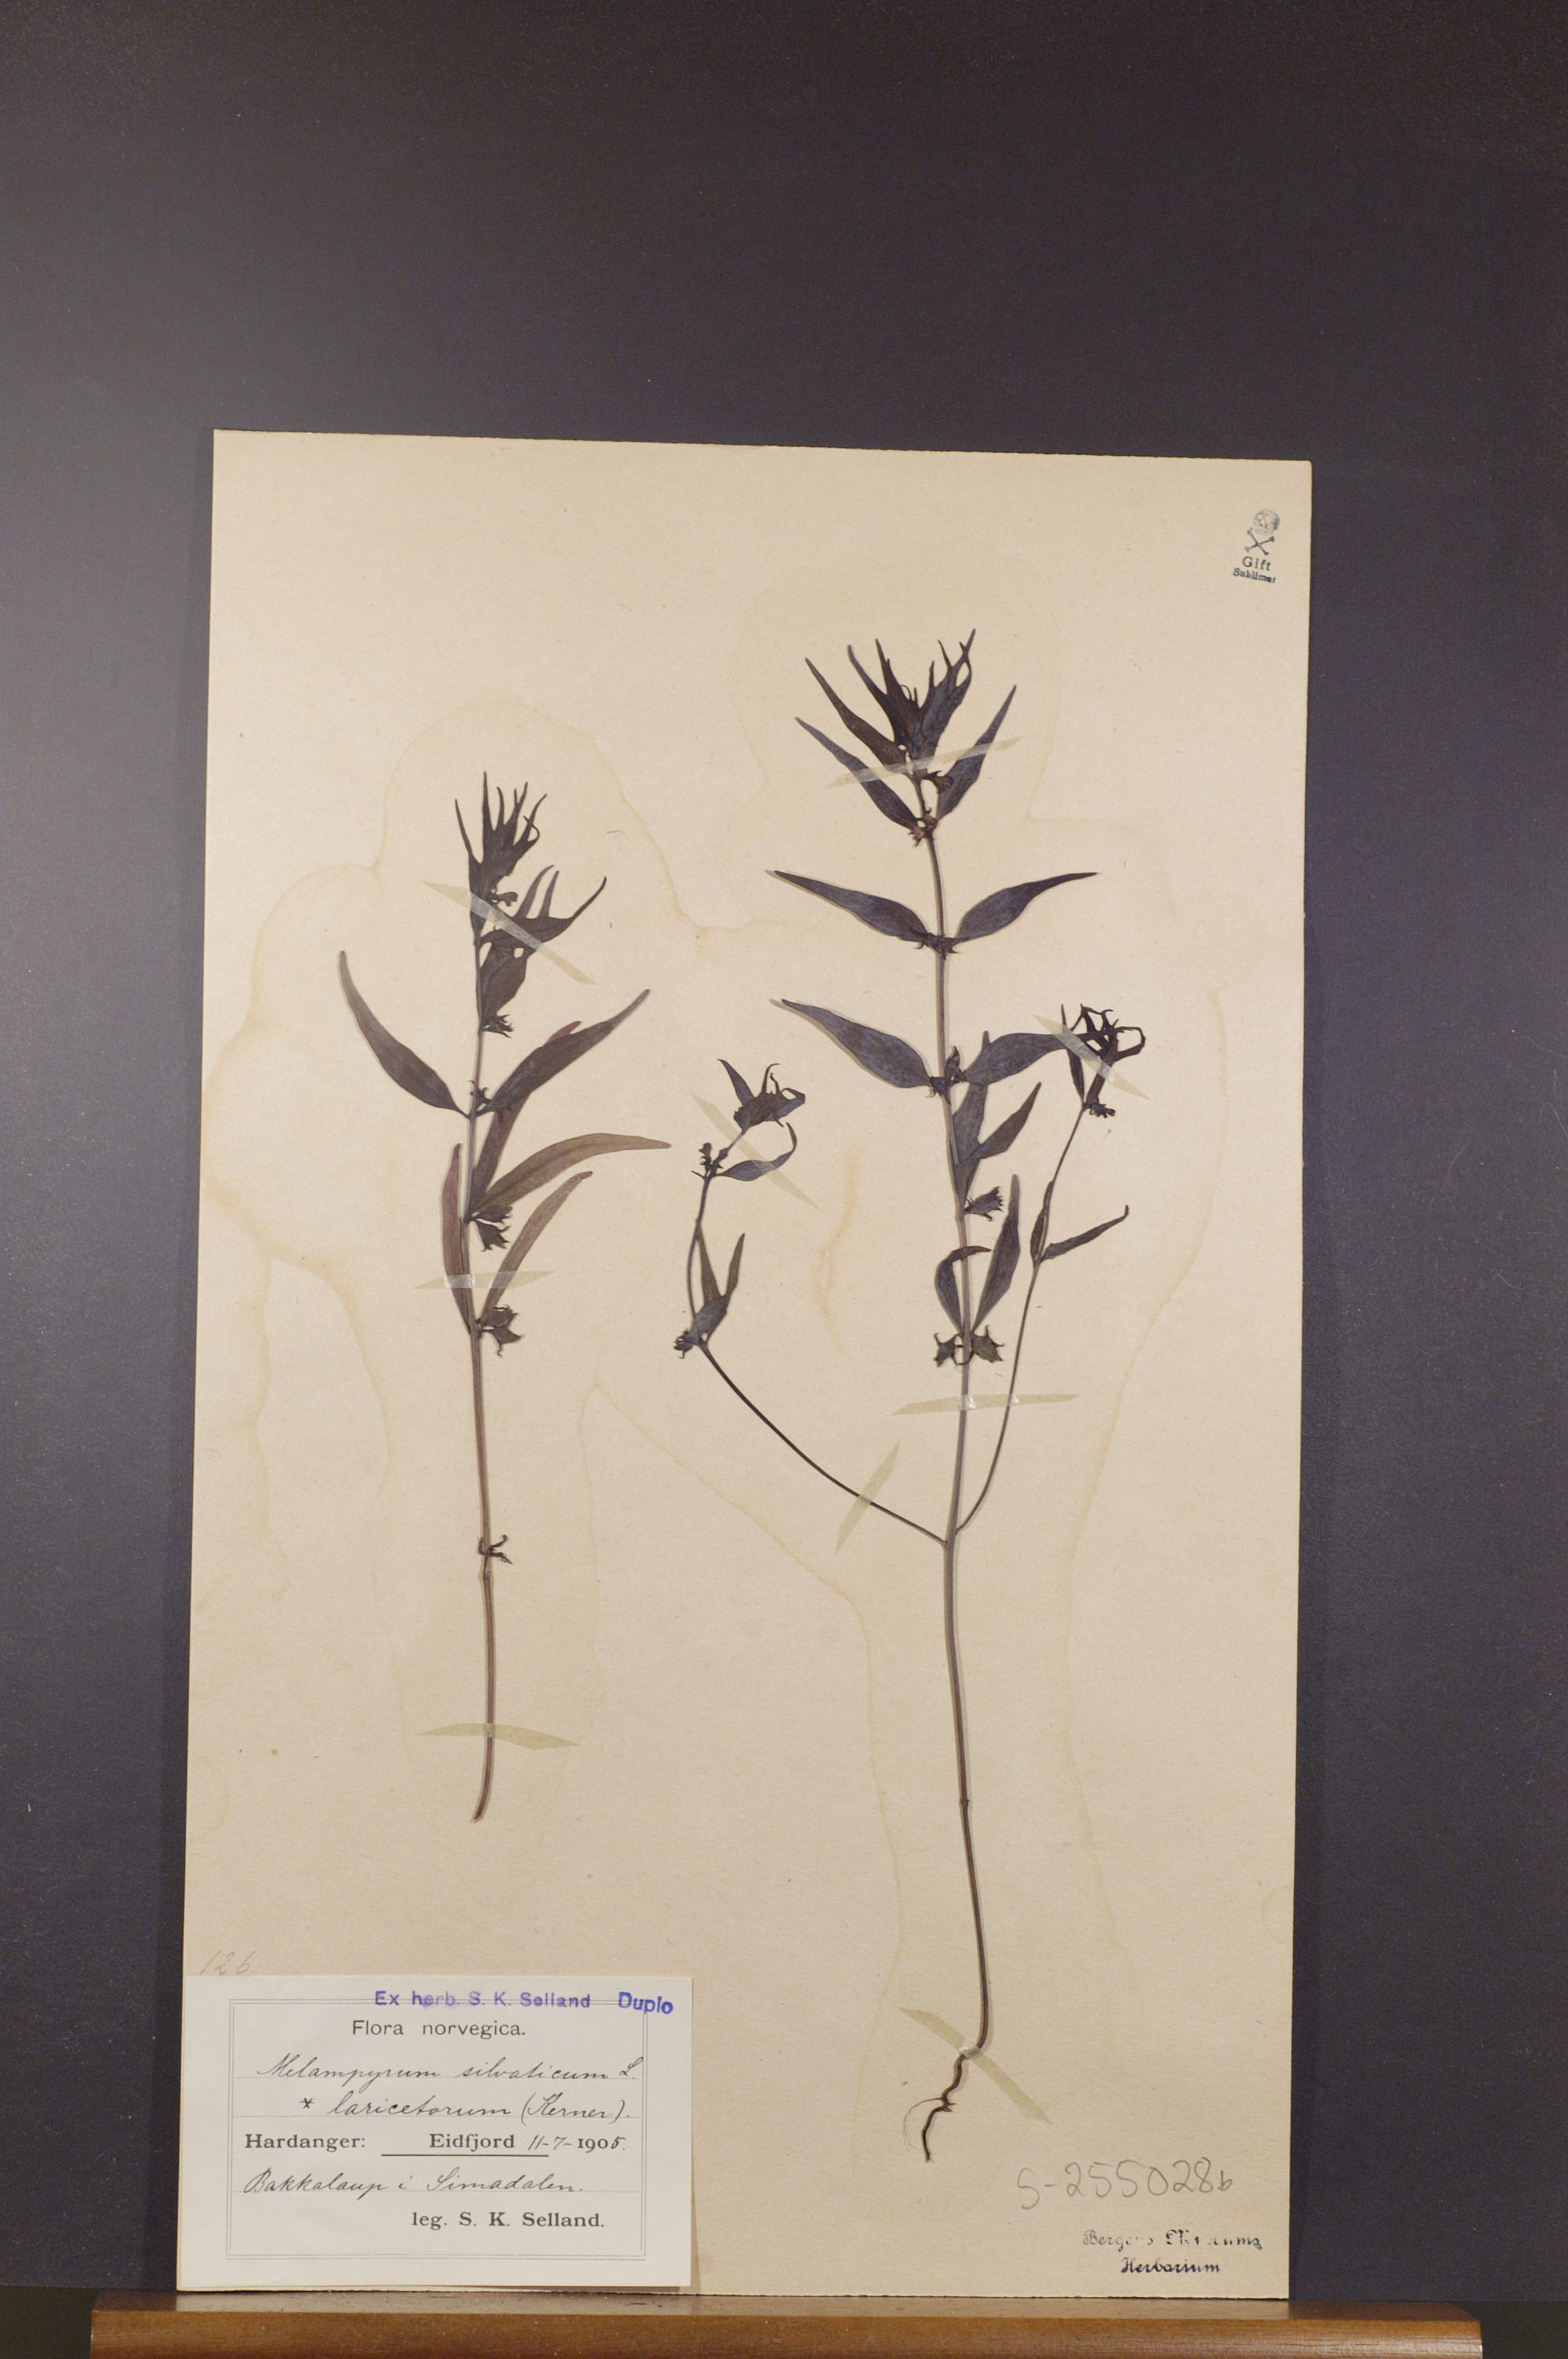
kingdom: Plantae
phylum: Tracheophyta
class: Magnoliopsida
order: Lamiales
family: Orobanchaceae
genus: Melampyrum
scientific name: Melampyrum sylvaticum
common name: Small cow-wheat
